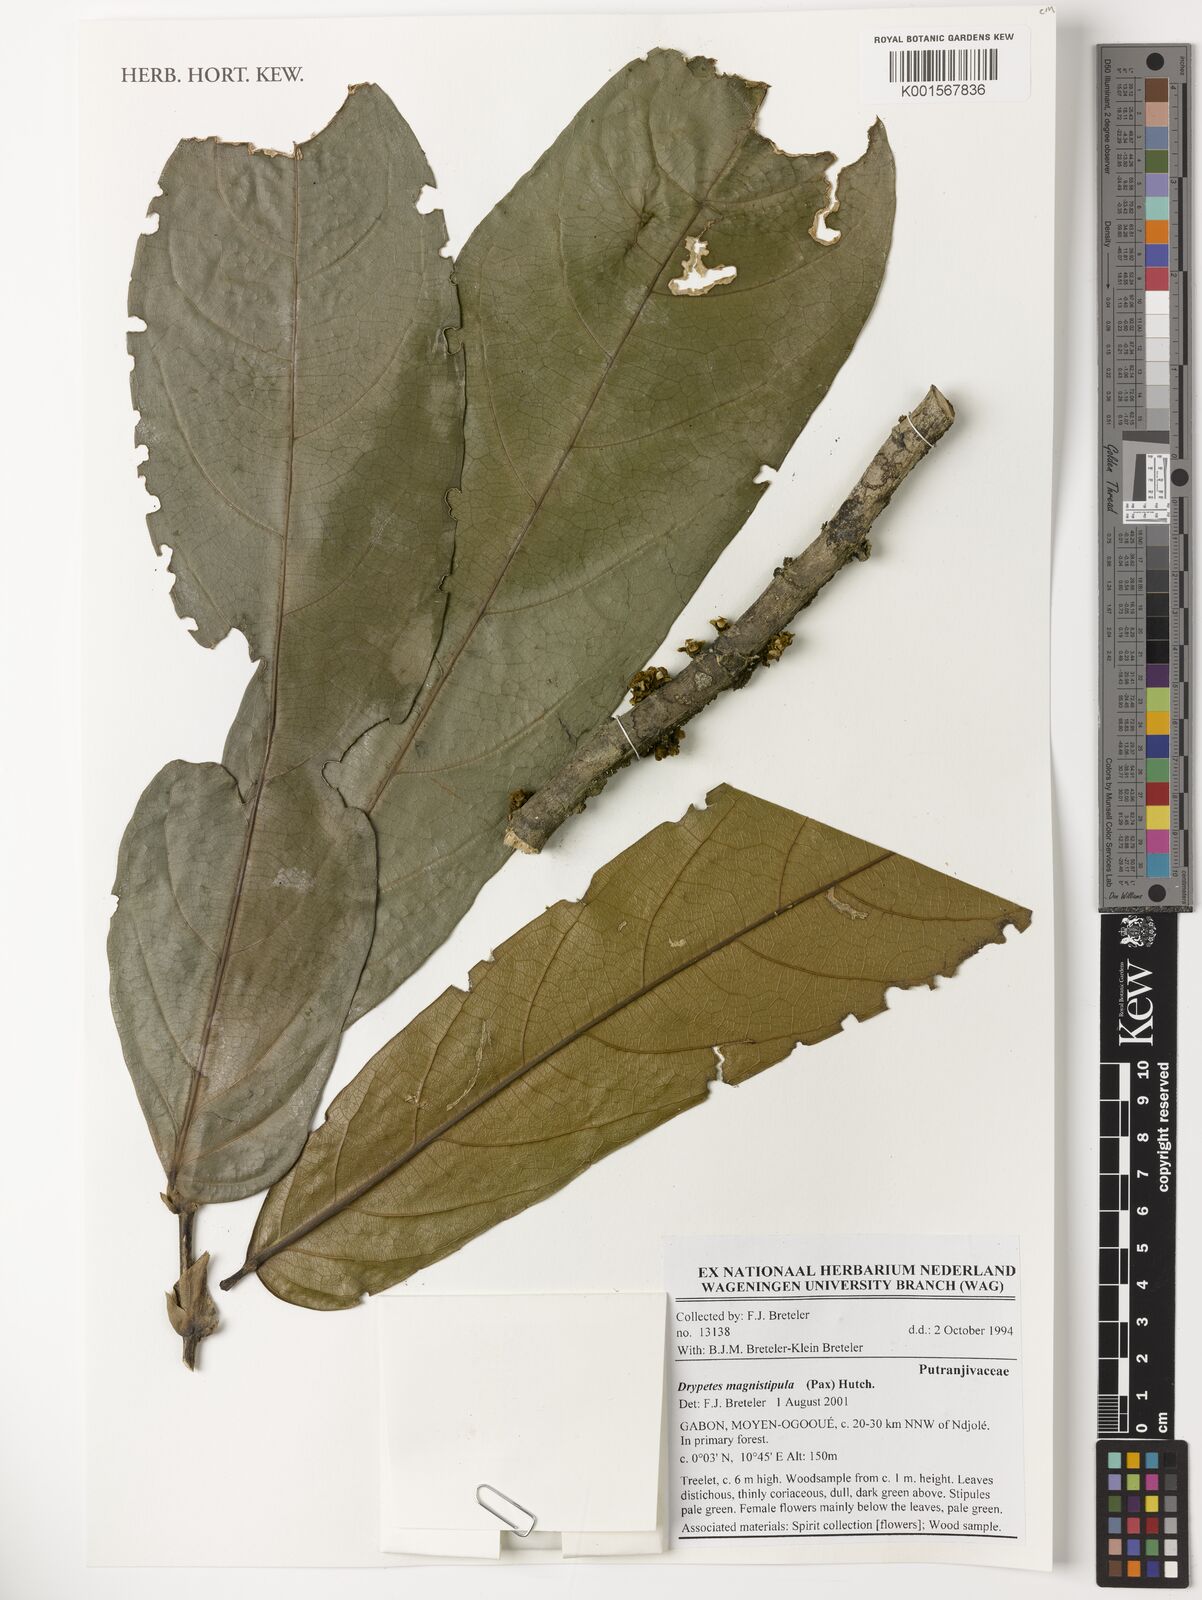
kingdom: Plantae
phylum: Tracheophyta
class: Magnoliopsida
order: Malpighiales
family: Putranjivaceae
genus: Drypetes
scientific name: Drypetes magnistipula
